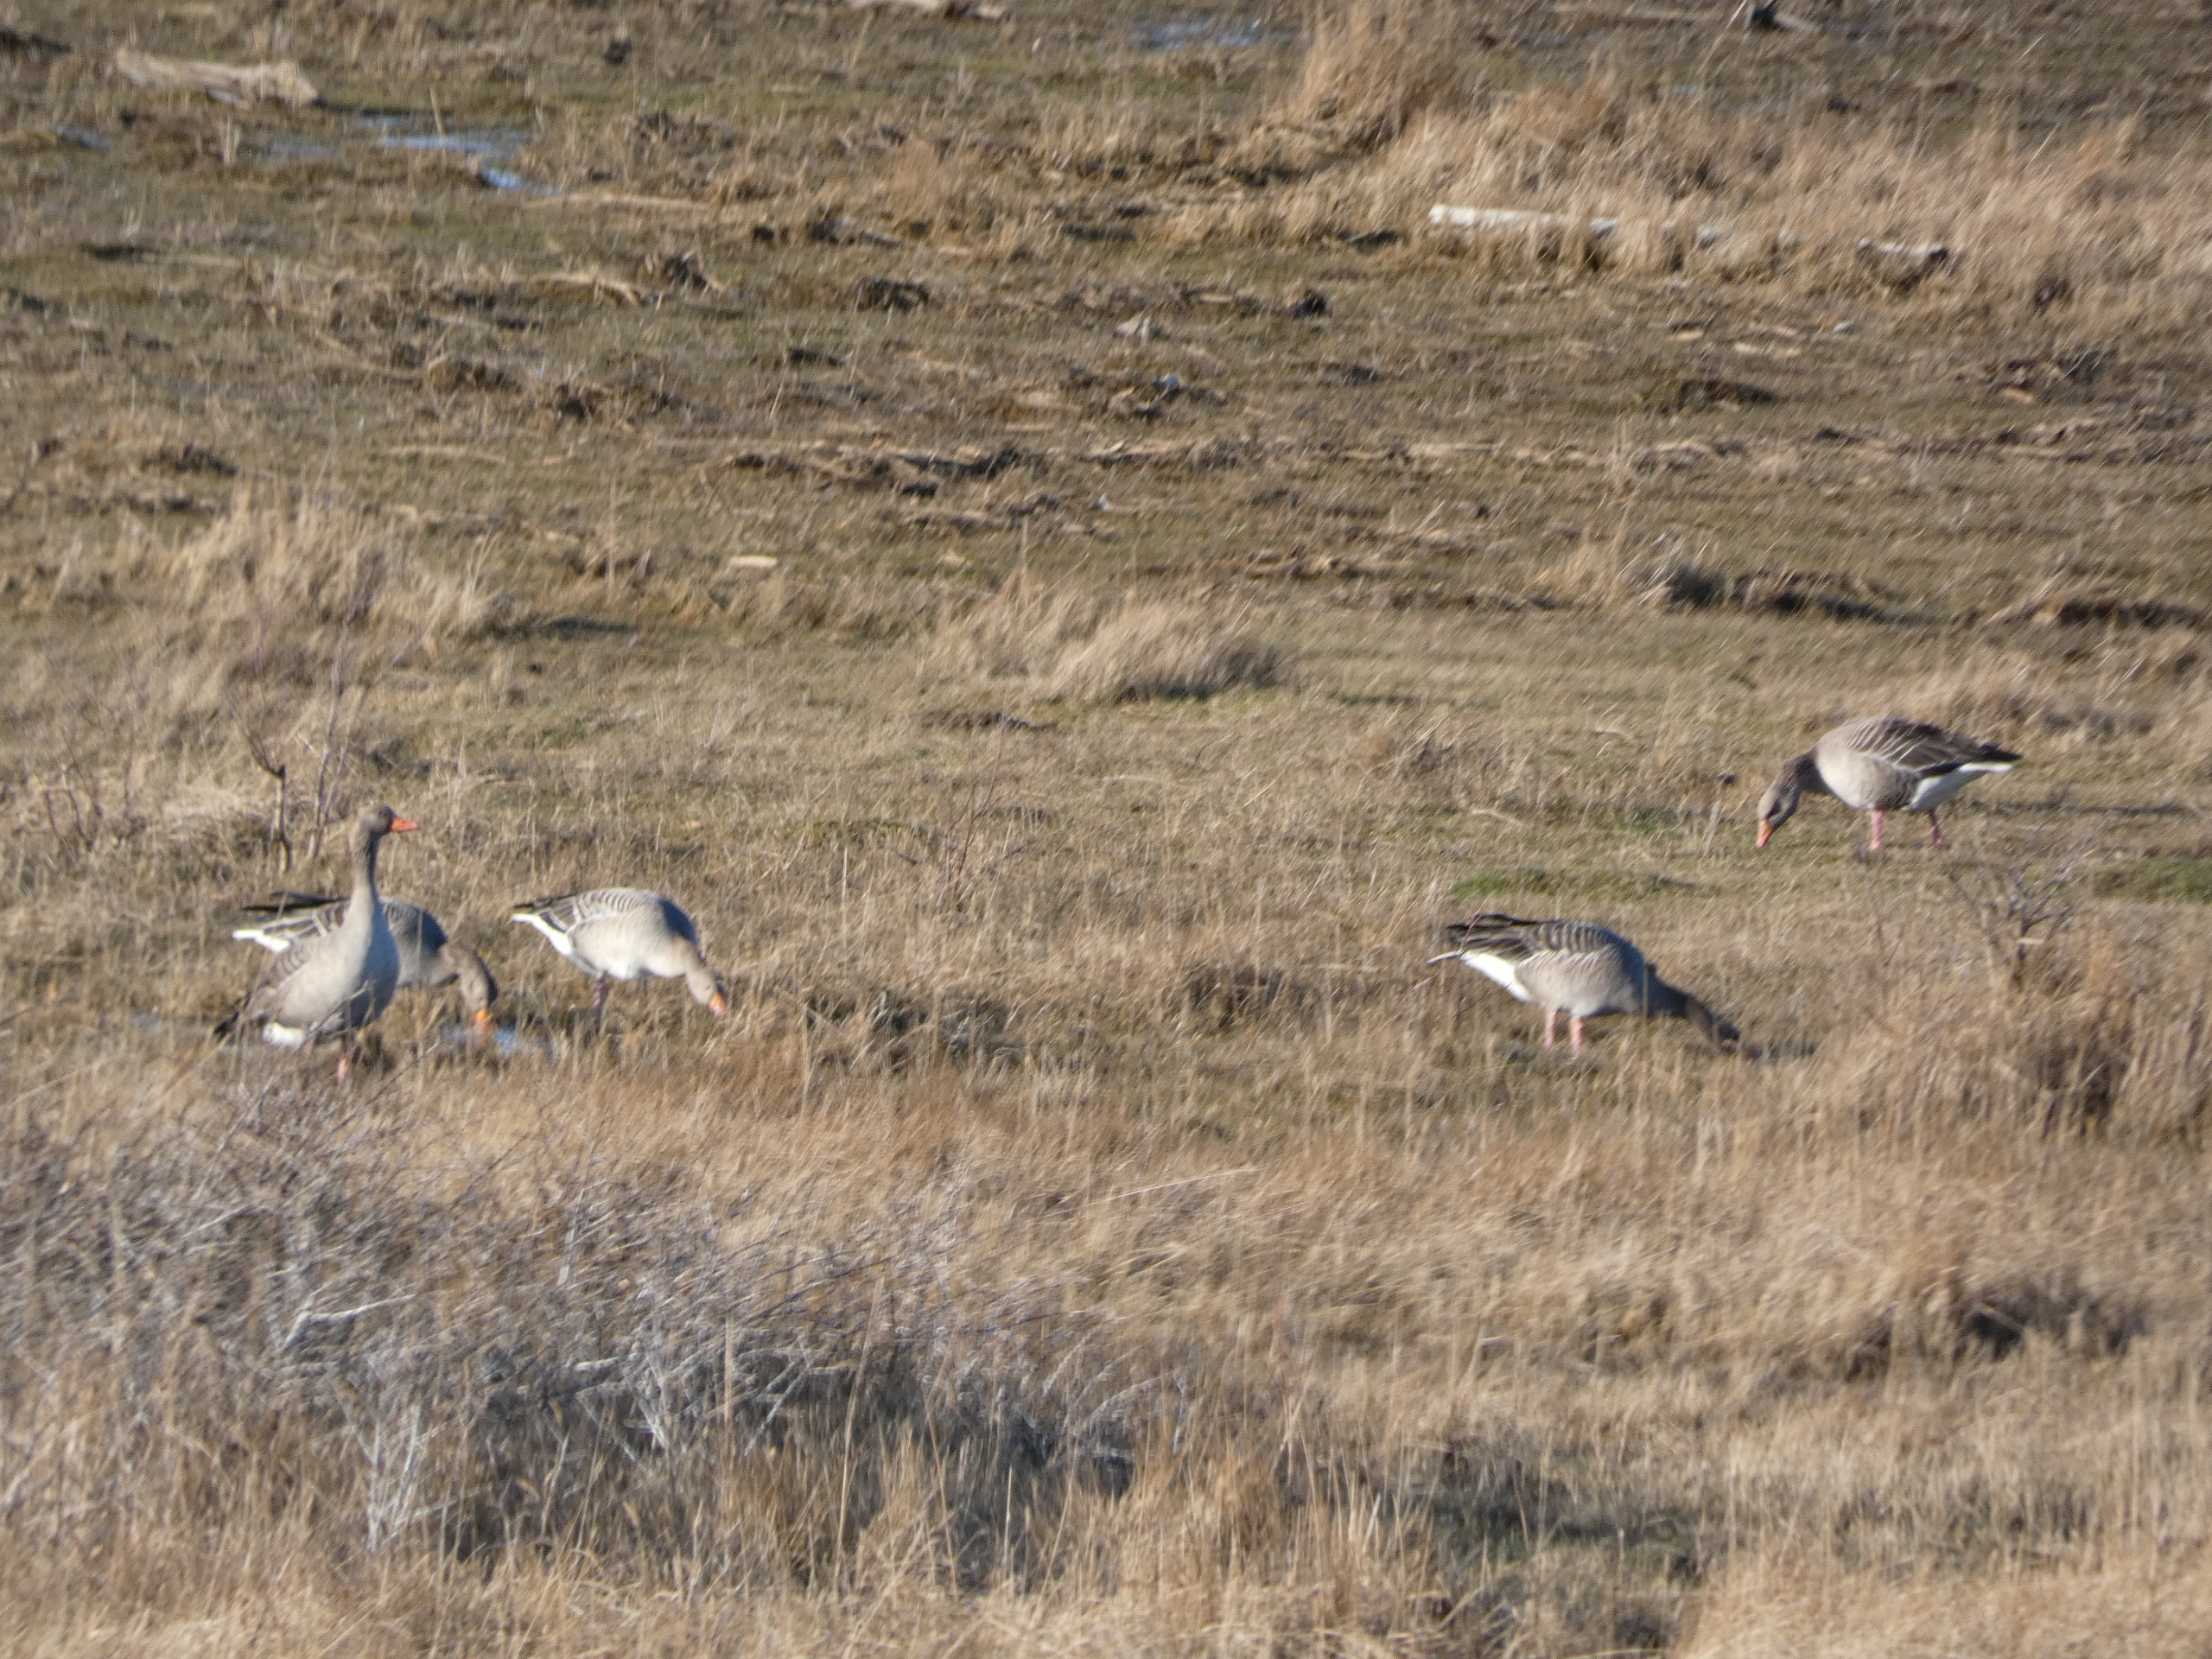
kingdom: Animalia
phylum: Chordata
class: Aves
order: Anseriformes
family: Anatidae
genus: Anser
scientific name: Anser anser
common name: Grågås
